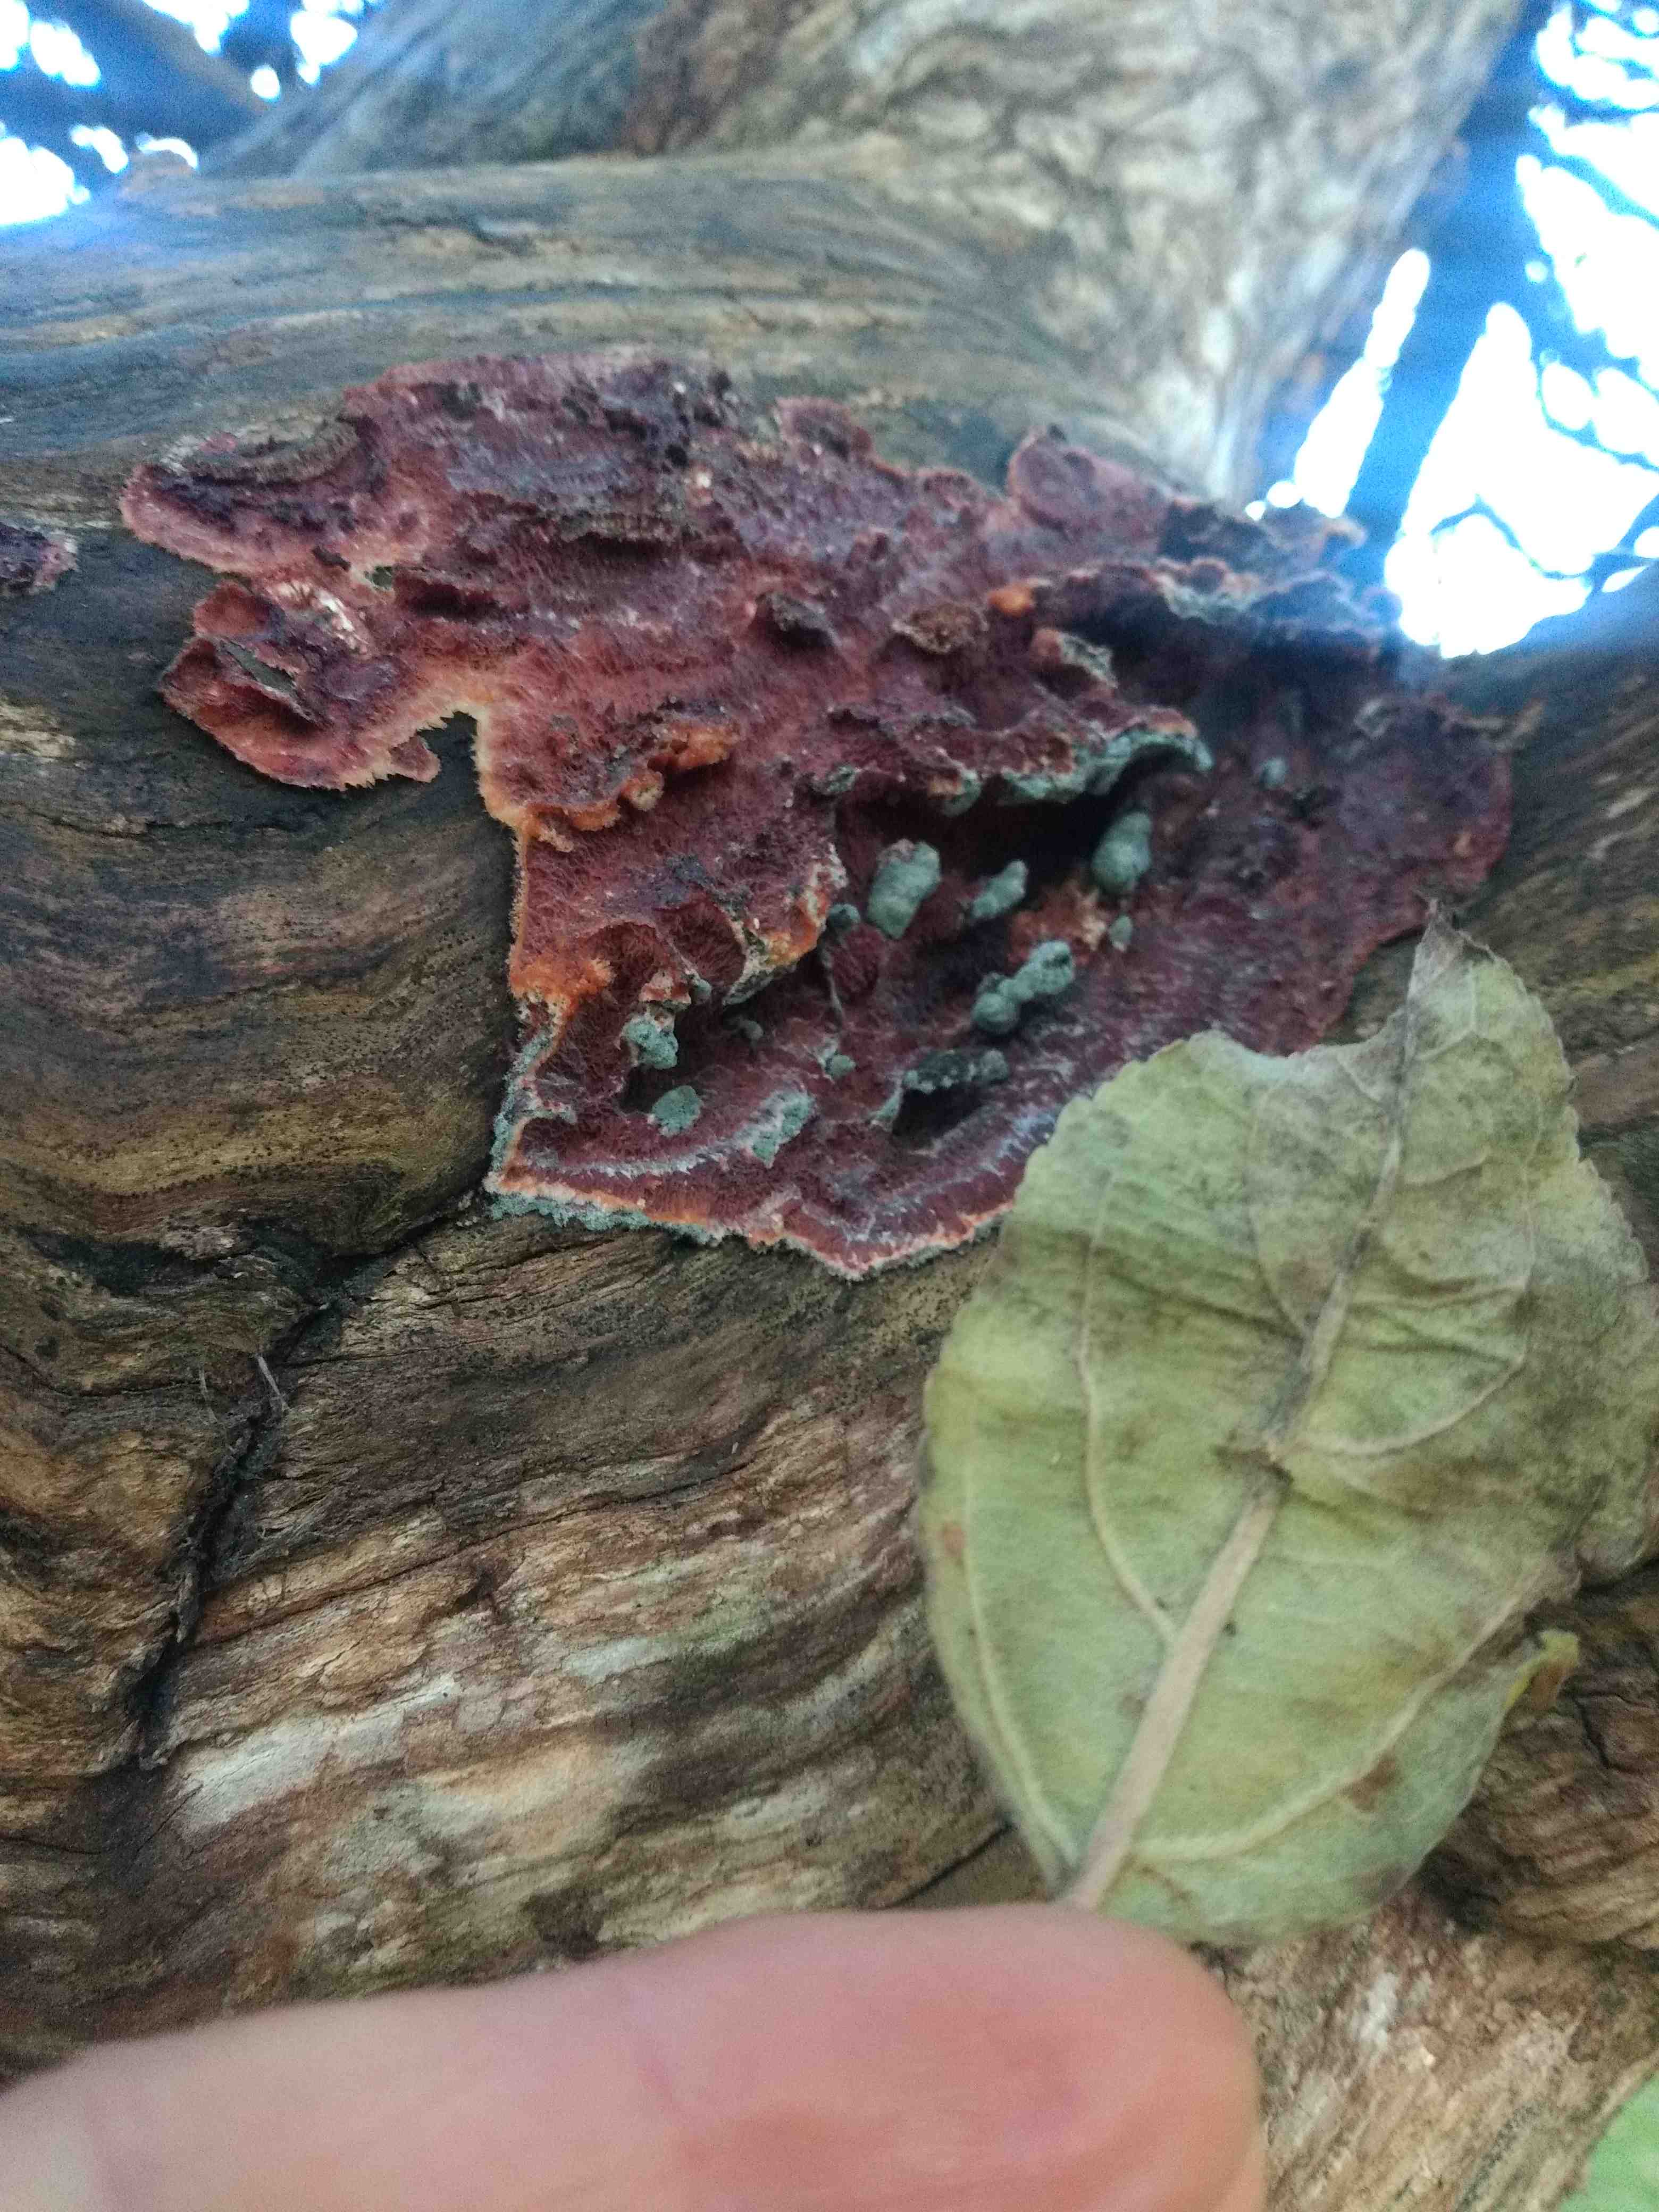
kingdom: Fungi
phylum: Basidiomycota
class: Agaricomycetes
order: Polyporales
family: Meruliaceae
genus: Phlebia
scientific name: Phlebia tremellosa
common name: bævrende åresvamp
